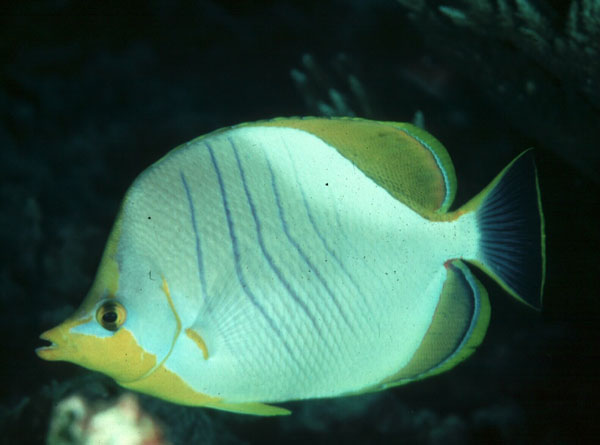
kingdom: Animalia
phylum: Chordata
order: Perciformes
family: Chaetodontidae
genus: Chaetodon
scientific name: Chaetodon xanthocephalus
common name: Yellowhead butterflyfish
